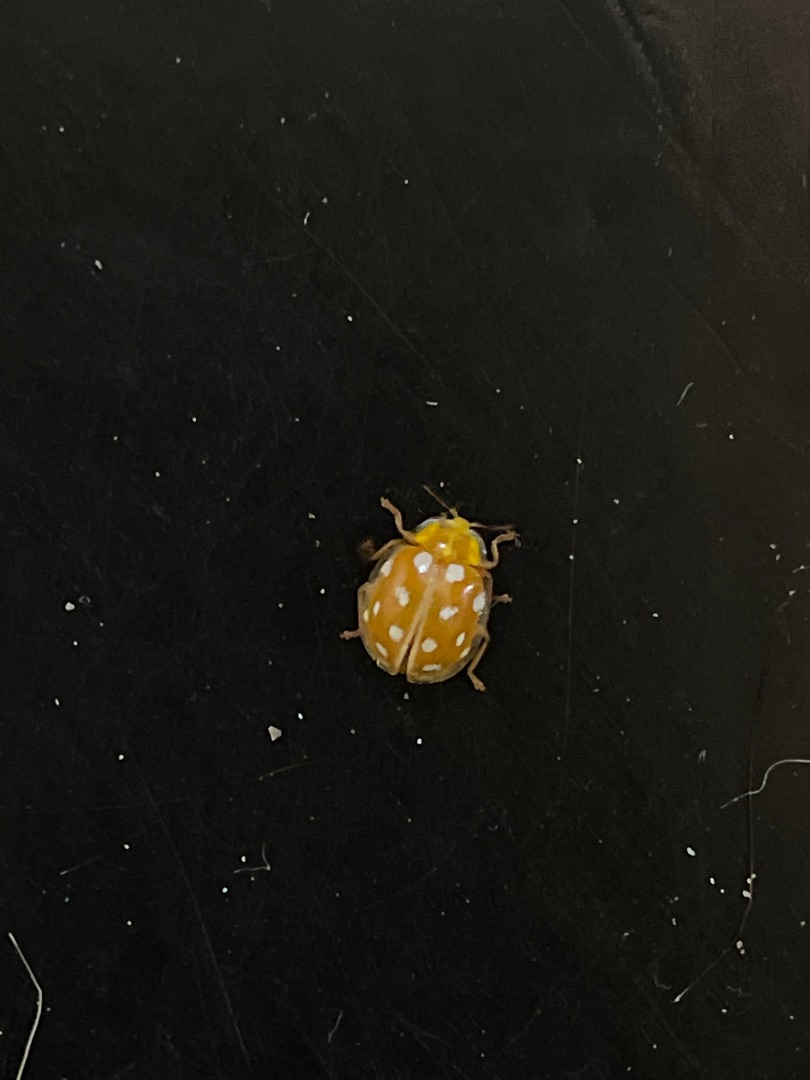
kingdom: Animalia
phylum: Arthropoda
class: Insecta
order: Coleoptera
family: Coccinellidae
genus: Halyzia
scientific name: Halyzia sedecimguttata
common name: Sekstenplettet mariehøne
